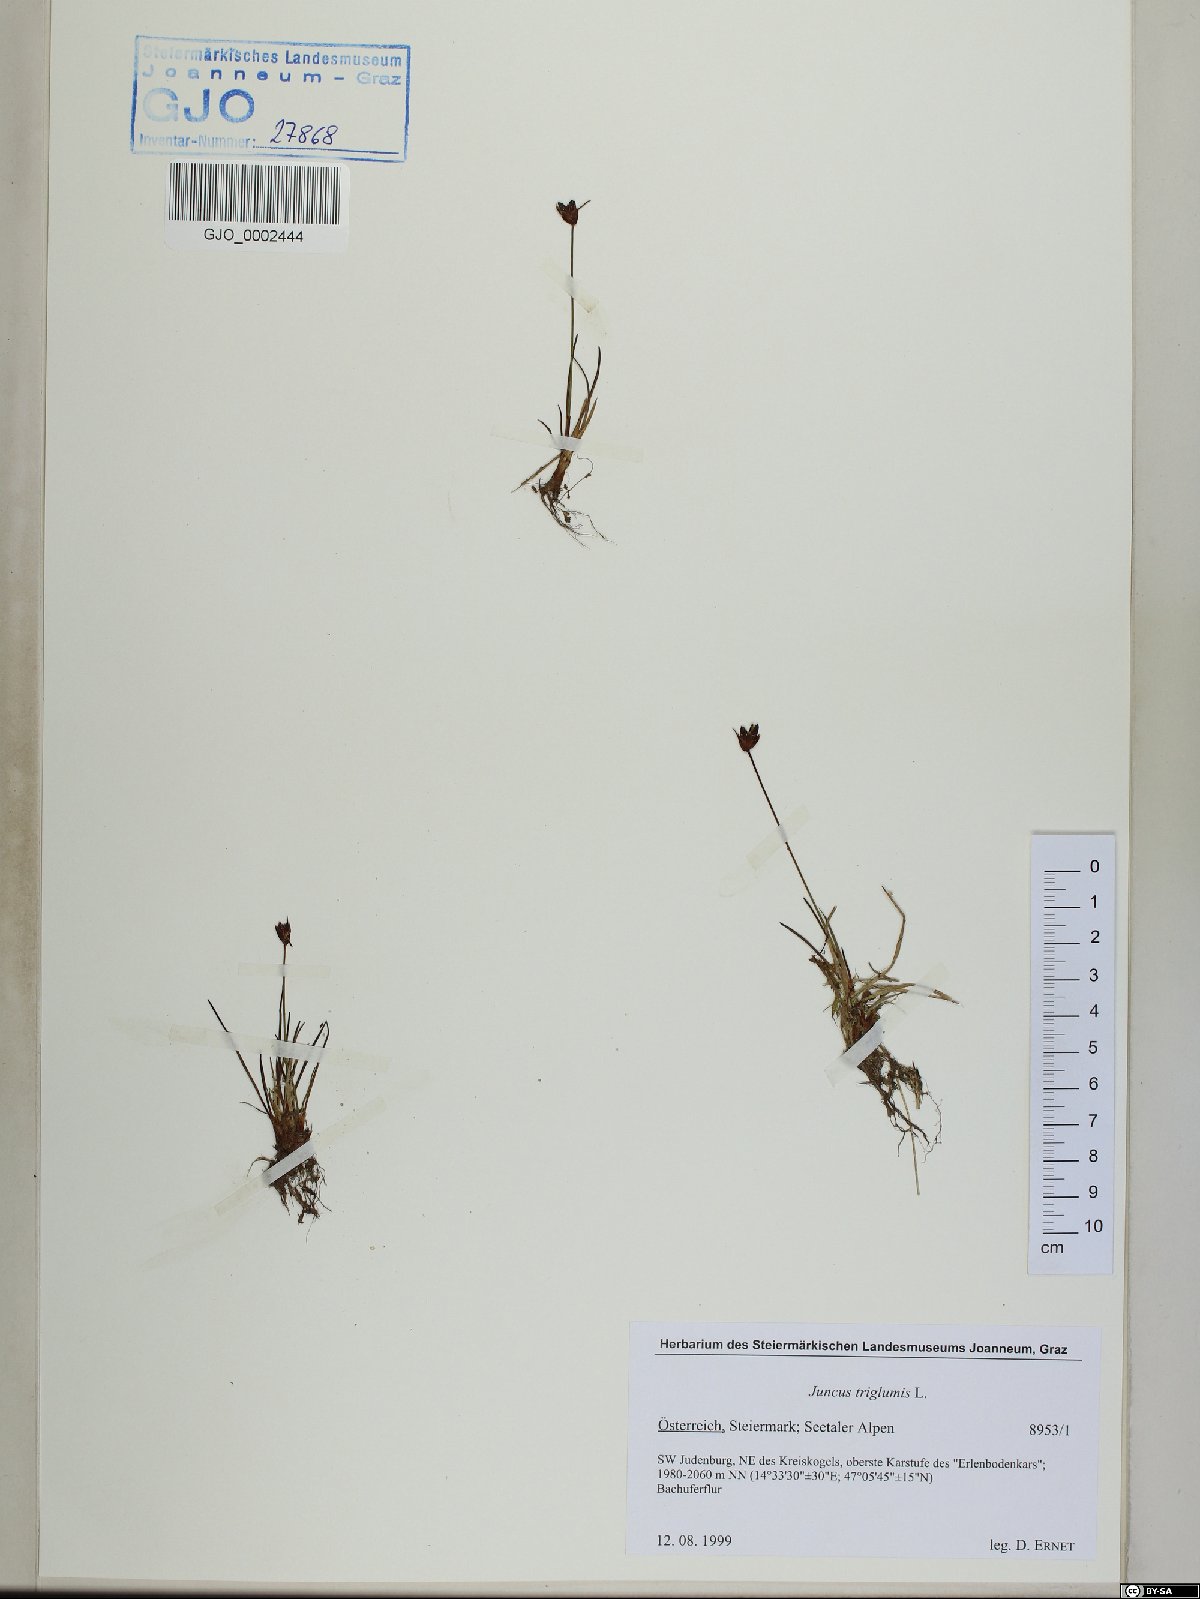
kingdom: Plantae
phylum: Tracheophyta
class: Liliopsida
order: Poales
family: Juncaceae
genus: Juncus
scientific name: Juncus triglumis
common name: Three-flowered rush
